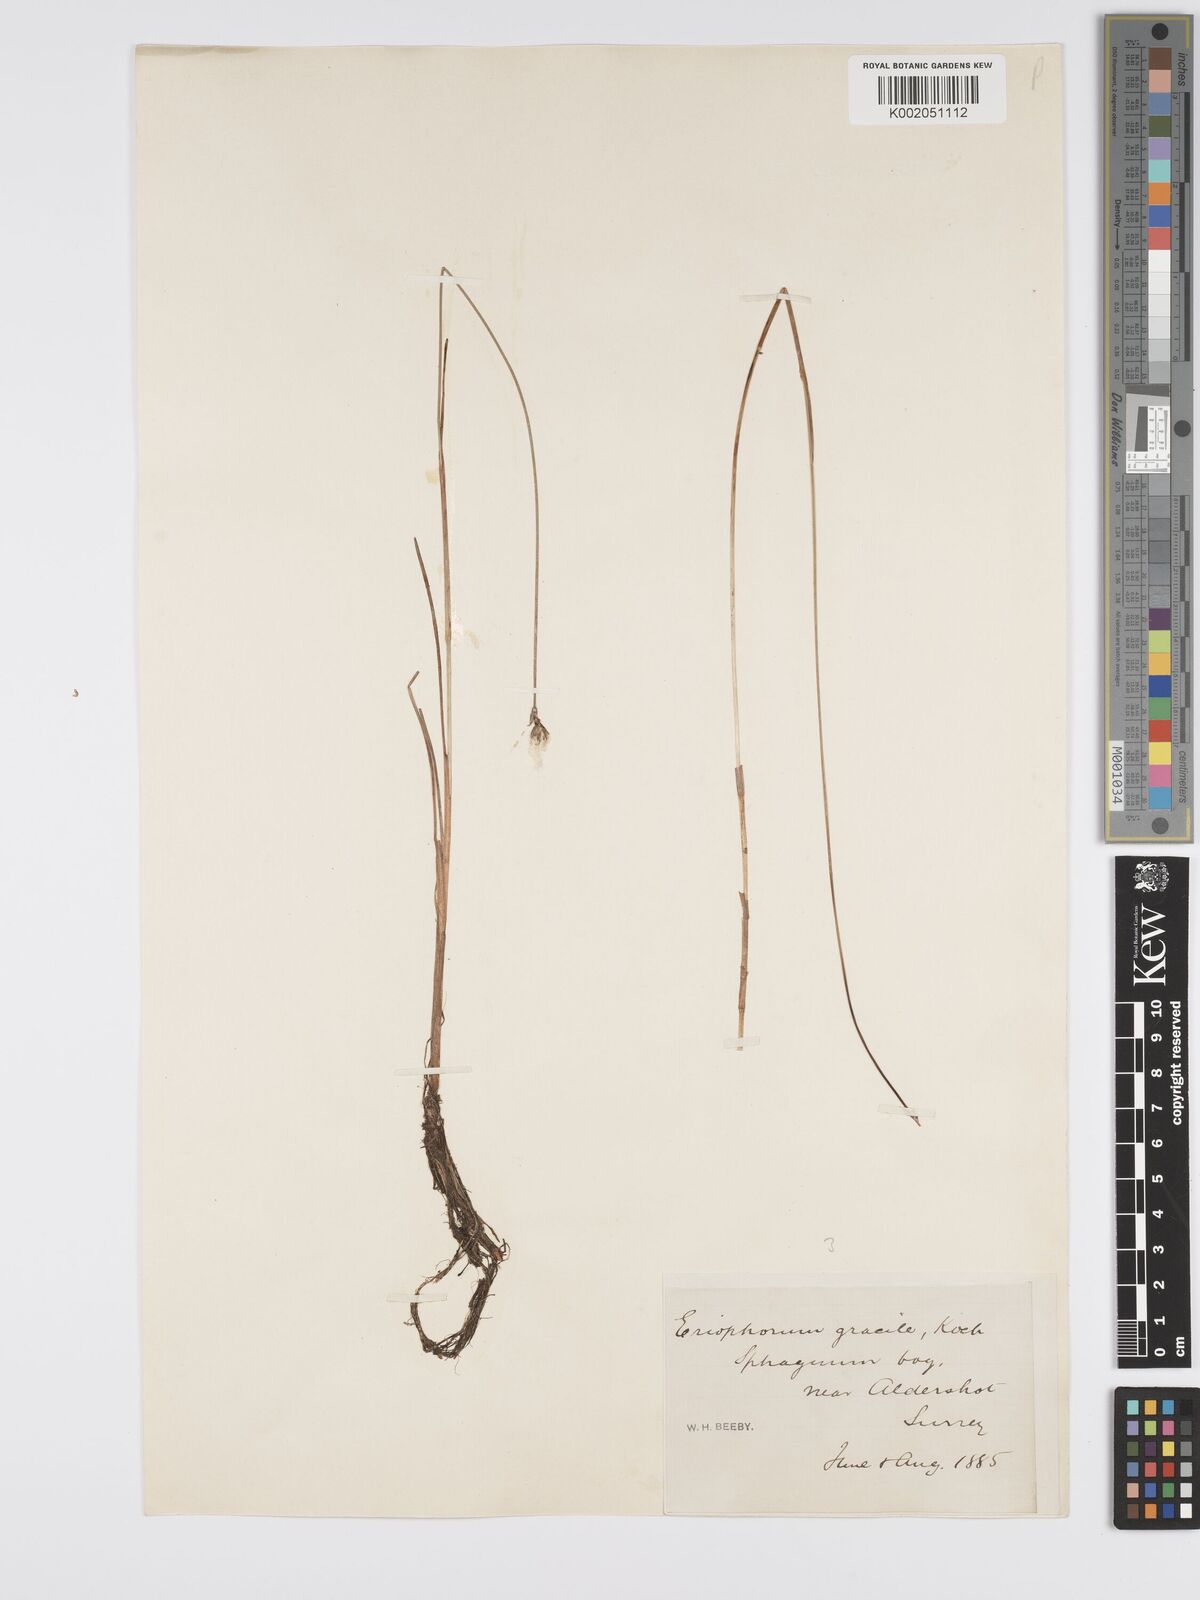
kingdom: Plantae
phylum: Tracheophyta
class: Liliopsida
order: Poales
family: Cyperaceae
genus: Eriophorum
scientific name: Eriophorum gracile
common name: Slender cottongrass
